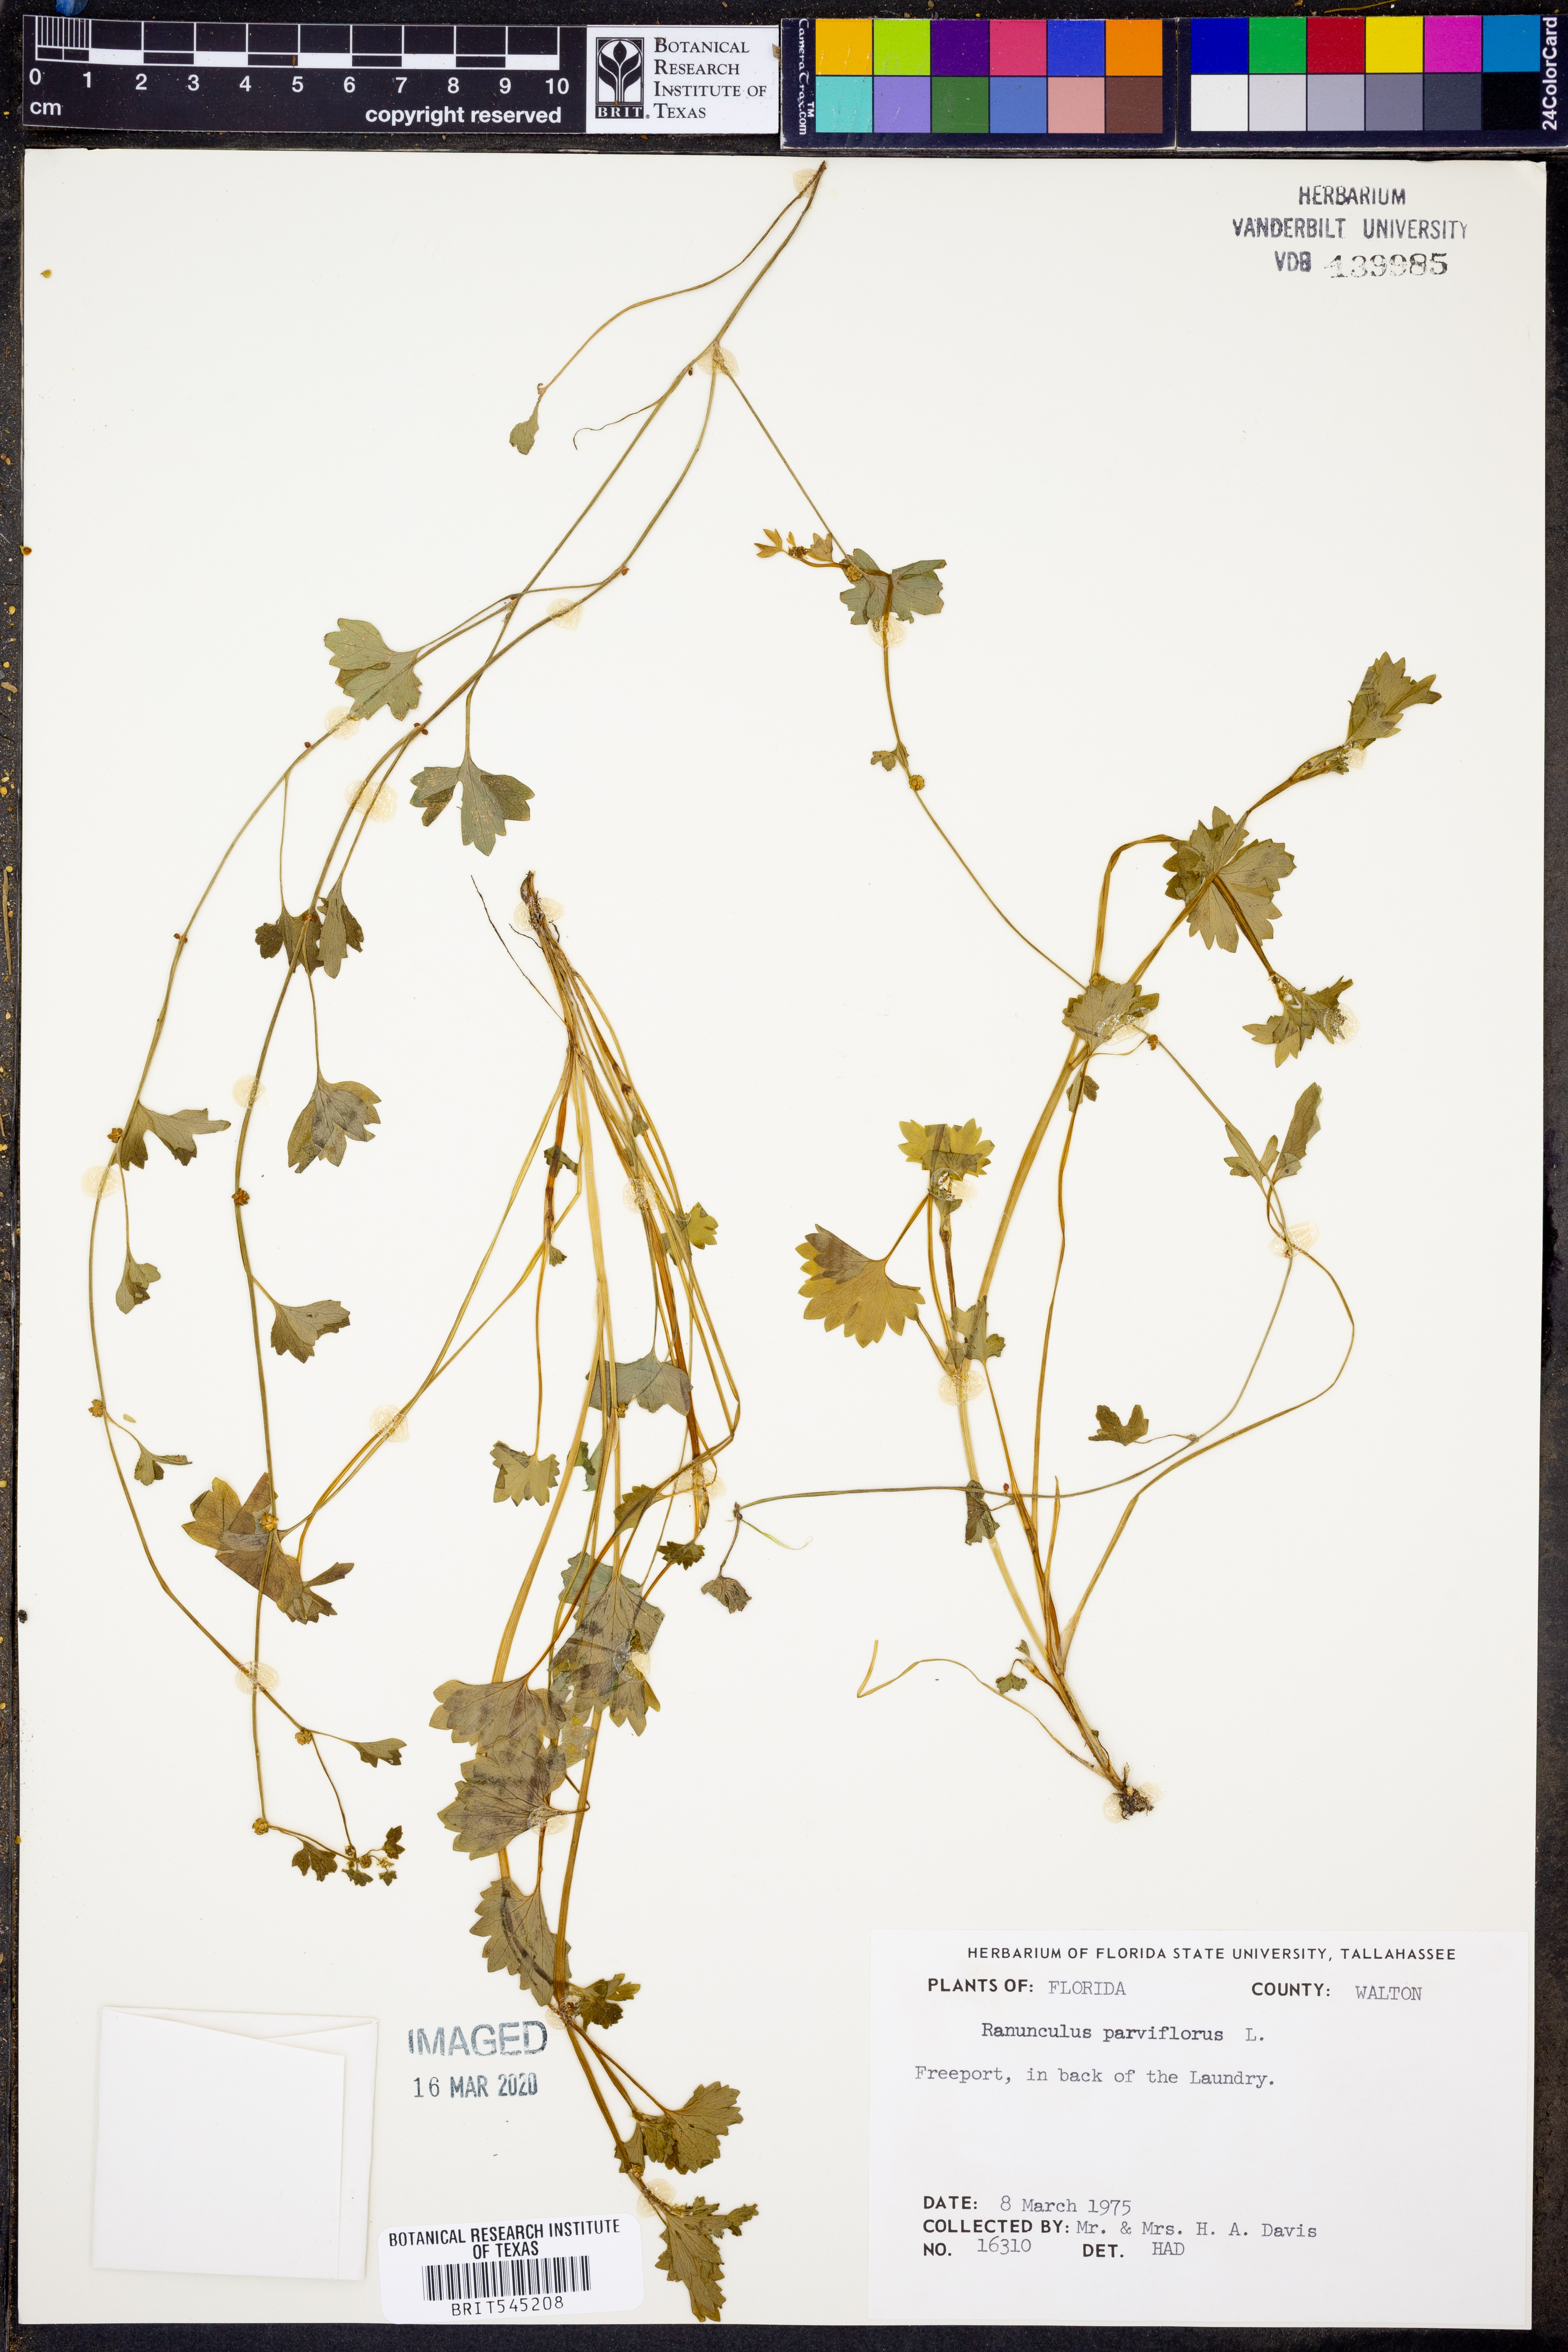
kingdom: Plantae
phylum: Tracheophyta
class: Magnoliopsida
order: Ranunculales
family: Ranunculaceae
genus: Ranunculus
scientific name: Ranunculus parviflorus
